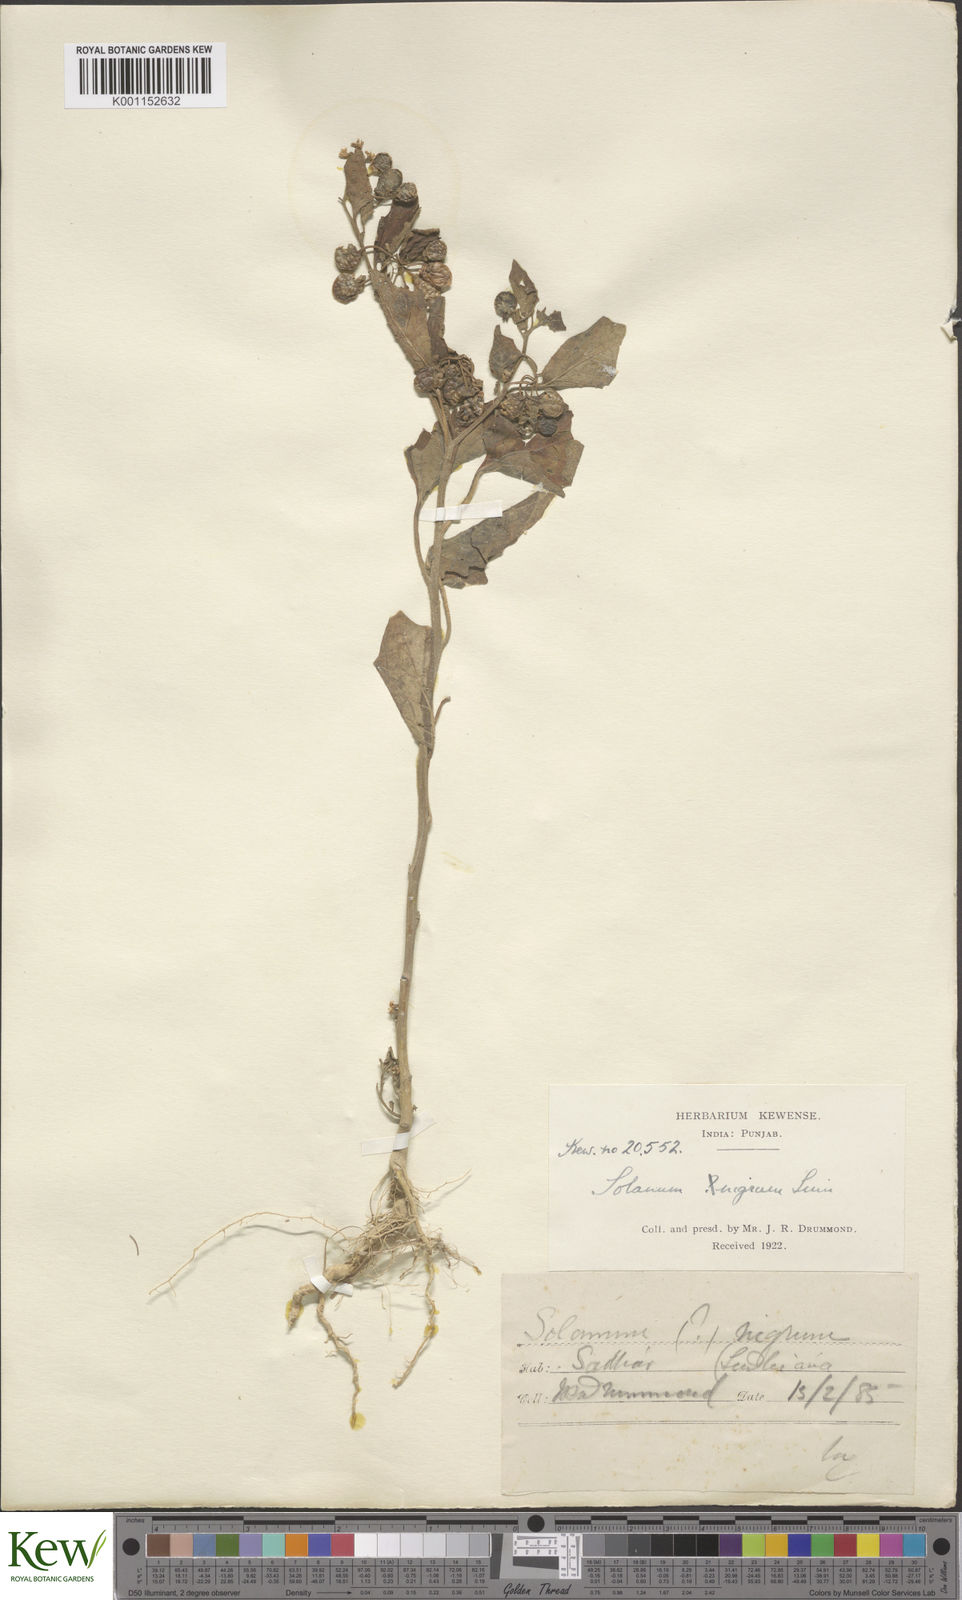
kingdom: Plantae
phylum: Tracheophyta
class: Magnoliopsida
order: Solanales
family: Solanaceae
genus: Solanum
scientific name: Solanum nigrum
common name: Black nightshade
